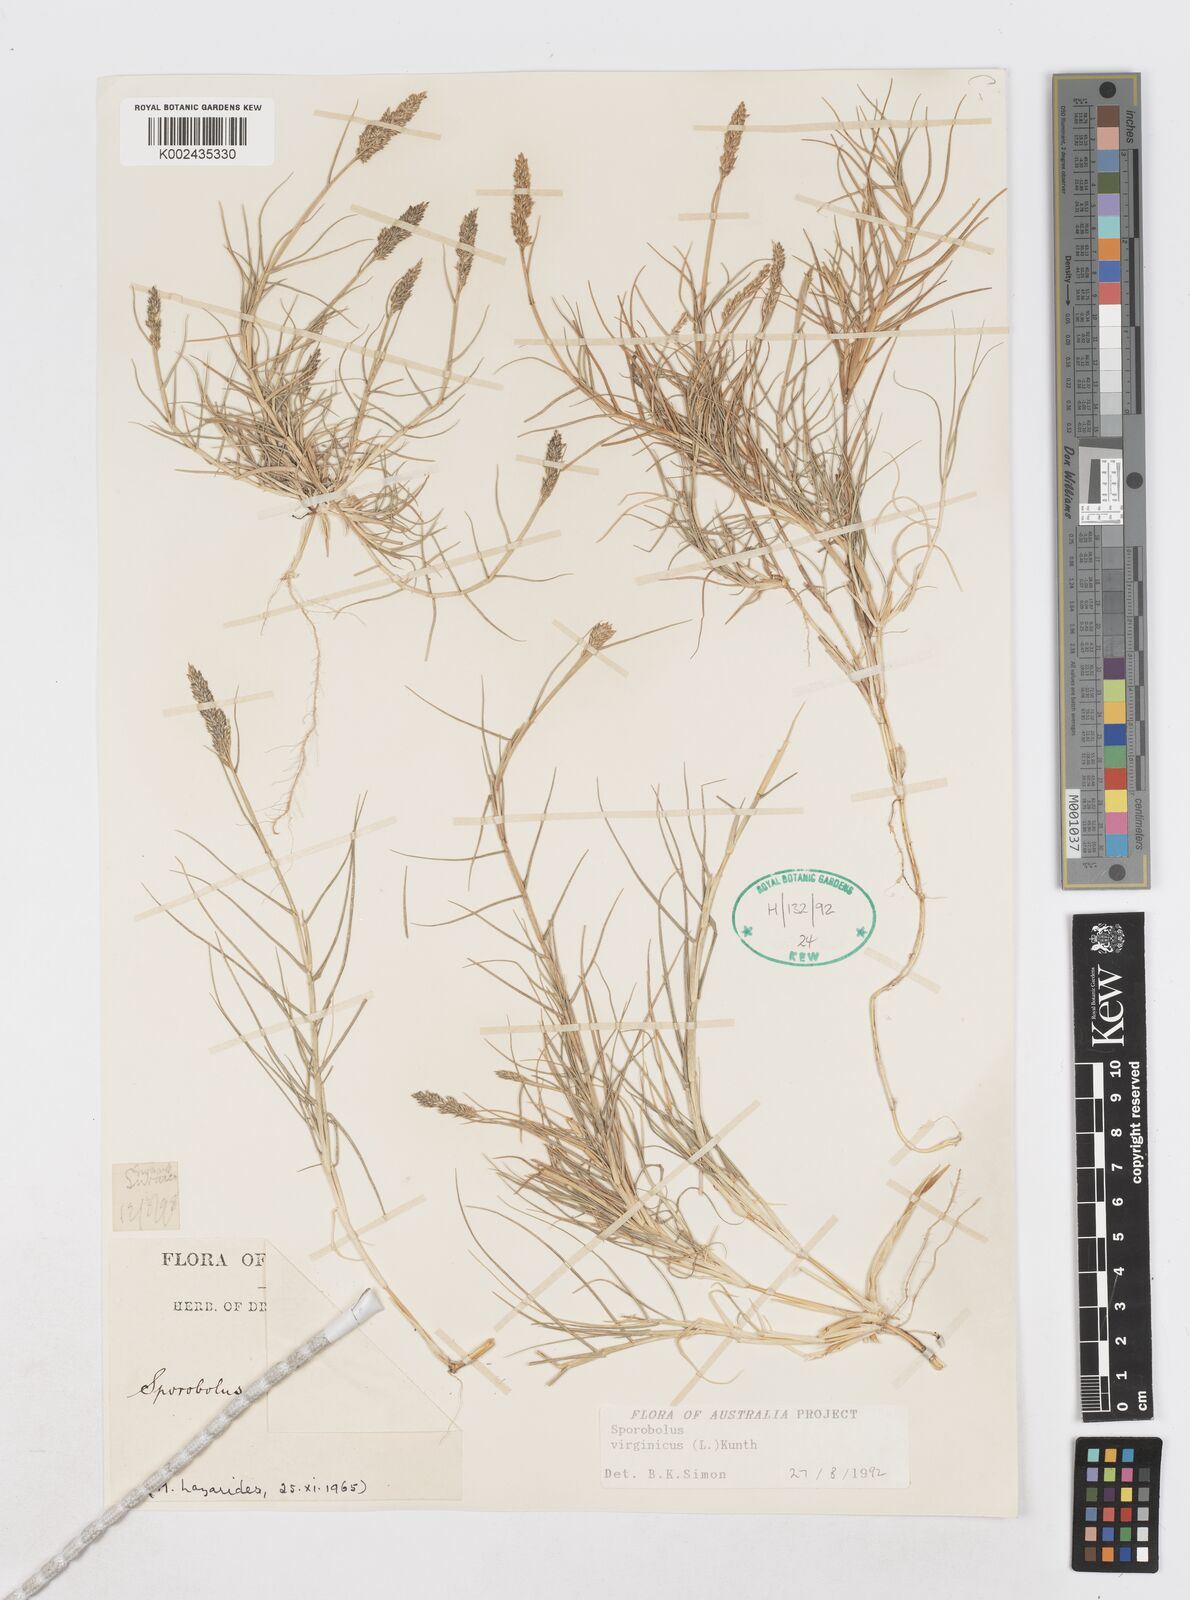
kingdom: Plantae
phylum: Tracheophyta
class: Liliopsida
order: Poales
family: Poaceae
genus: Sporobolus
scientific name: Sporobolus virginicus
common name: Beach dropseed
